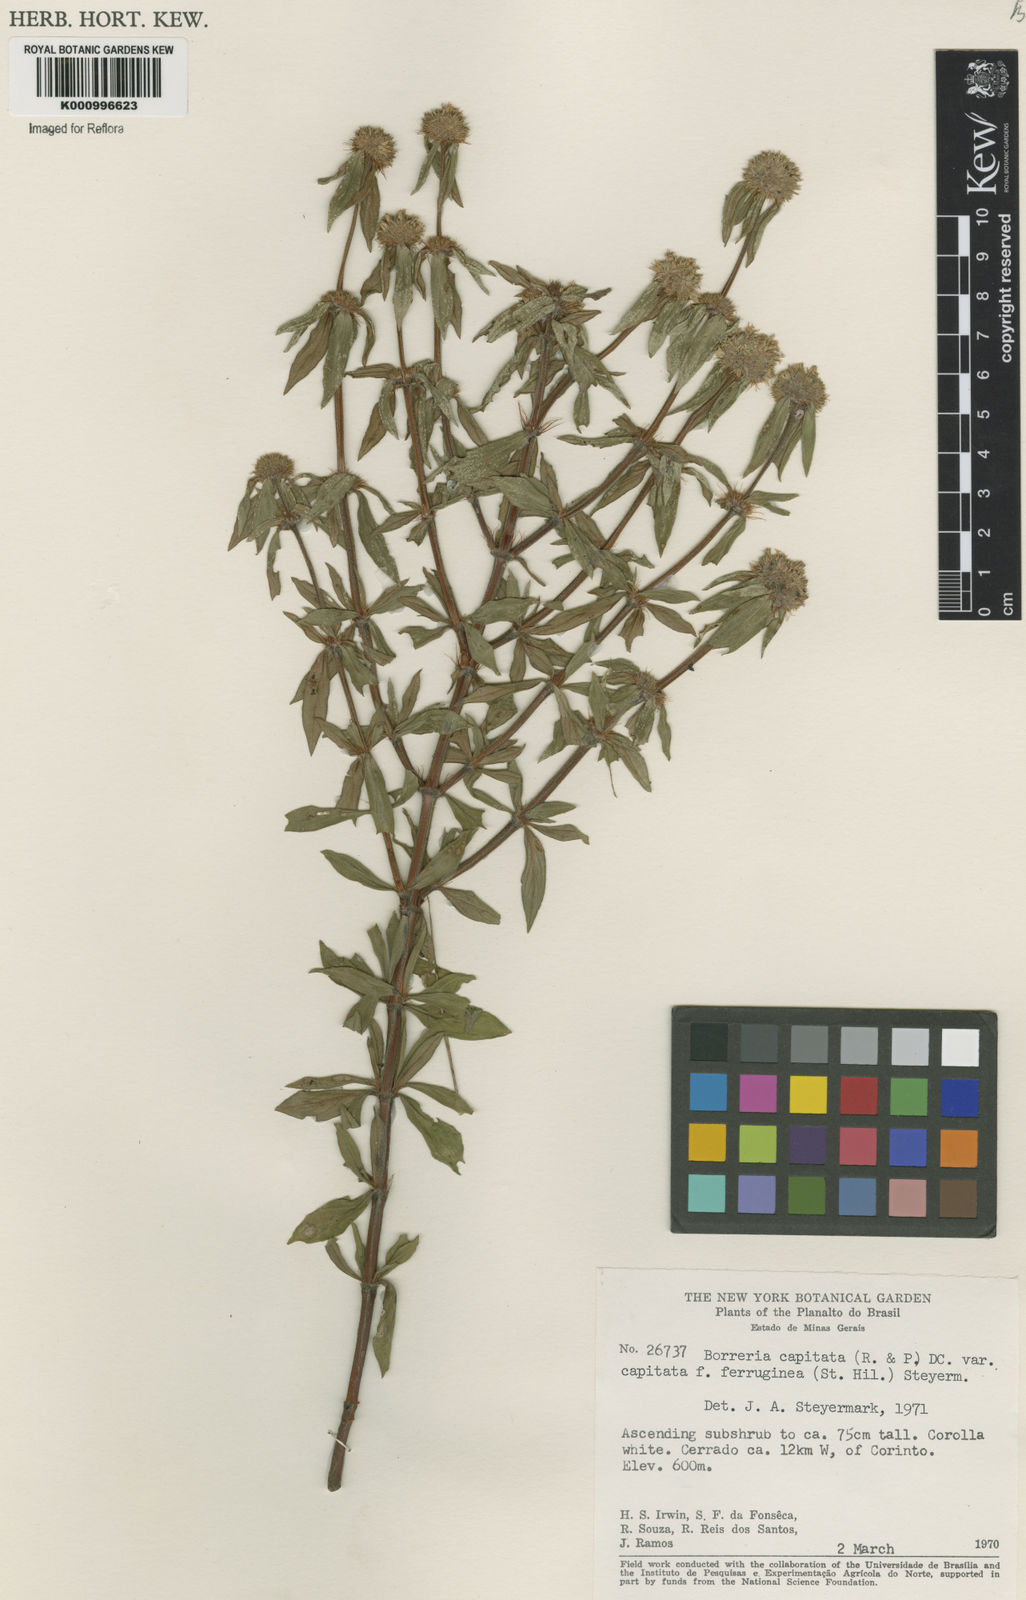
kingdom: Plantae
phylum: Tracheophyta
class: Magnoliopsida
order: Gentianales
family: Rubiaceae
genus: Spermacoce
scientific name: Spermacoce
